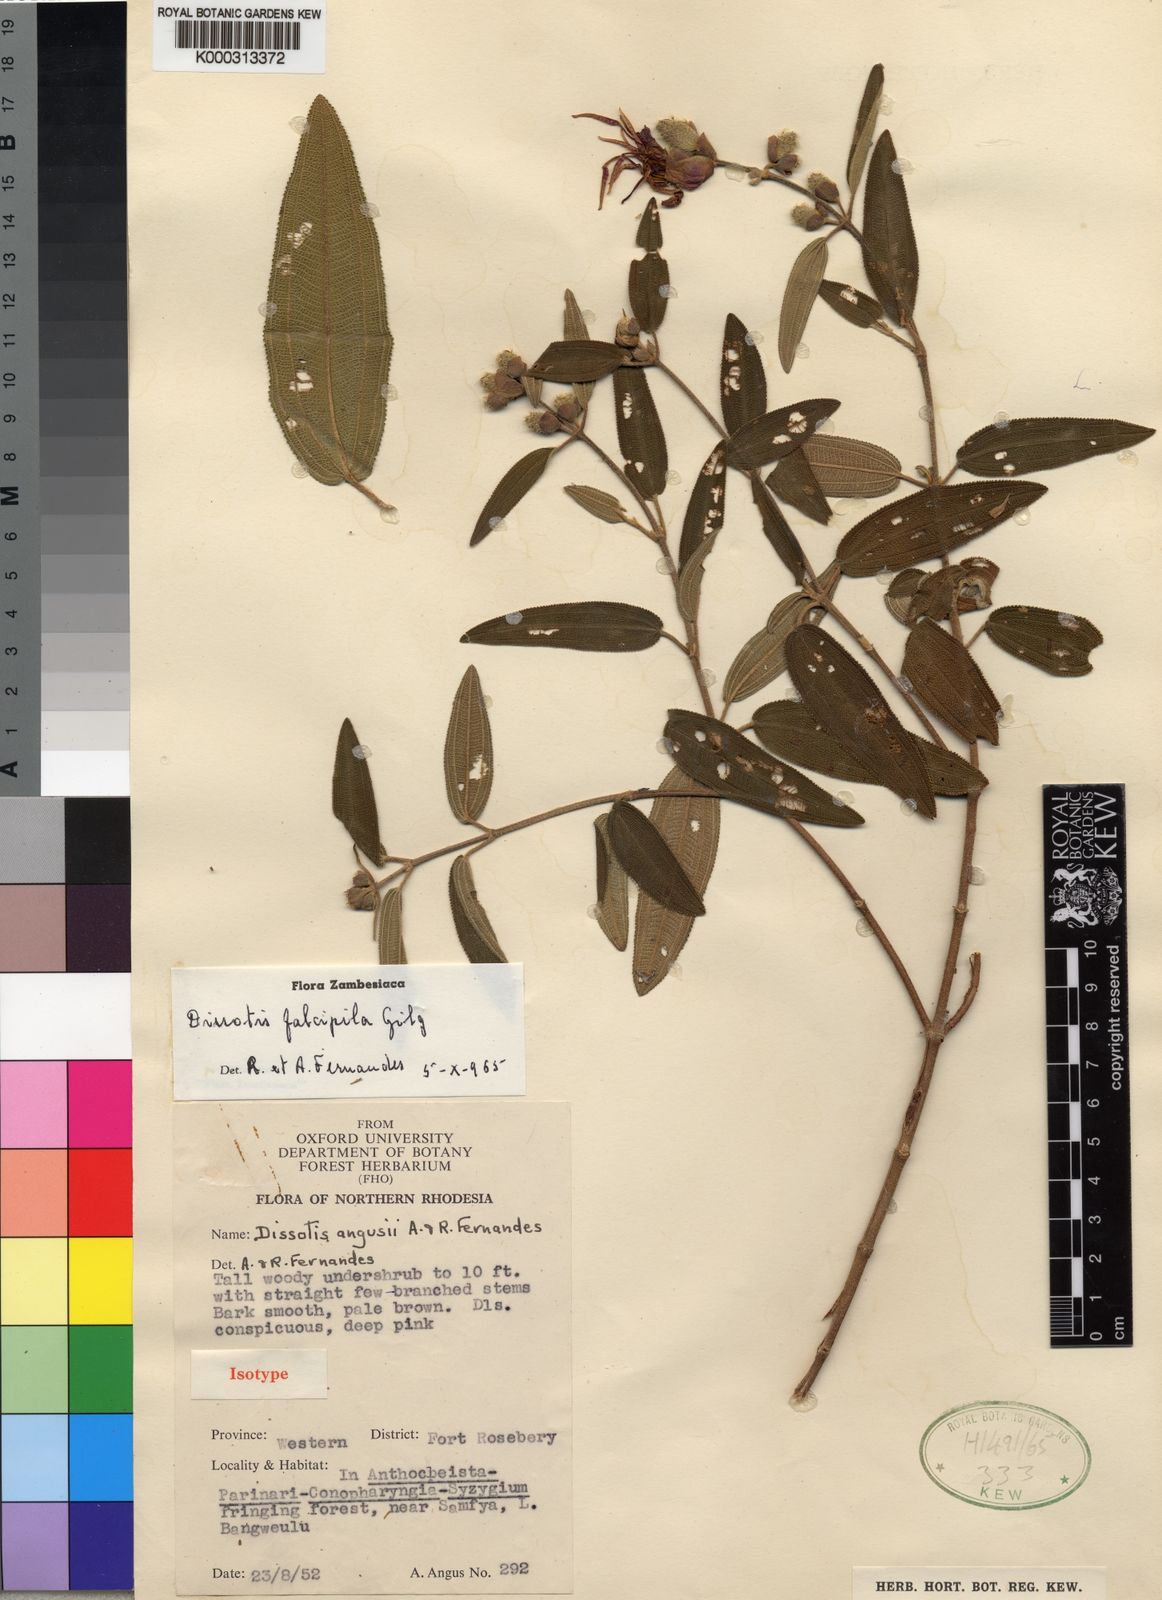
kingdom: Plantae
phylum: Tracheophyta
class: Magnoliopsida
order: Myrtales
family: Melastomataceae
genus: Rosettea
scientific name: Rosettea falcipila
